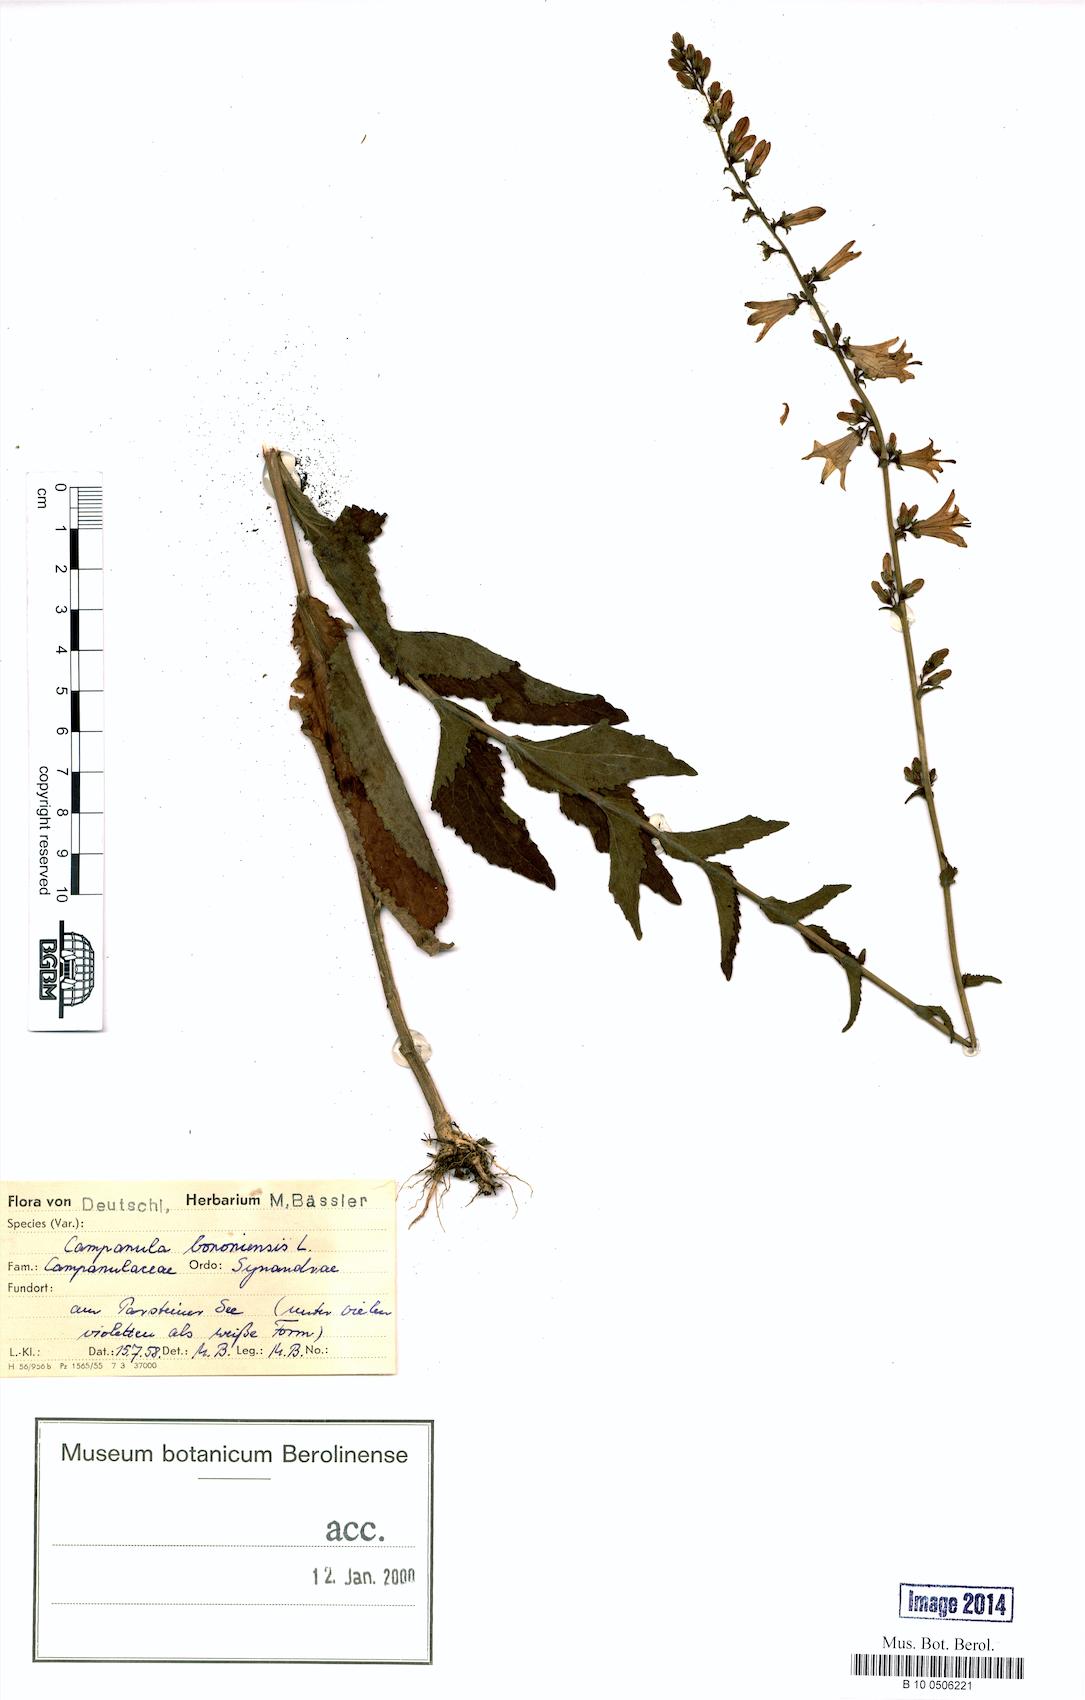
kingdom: Plantae
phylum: Tracheophyta
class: Magnoliopsida
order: Asterales
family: Campanulaceae
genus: Campanula
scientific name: Campanula bononiensis
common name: Pale bellflower
